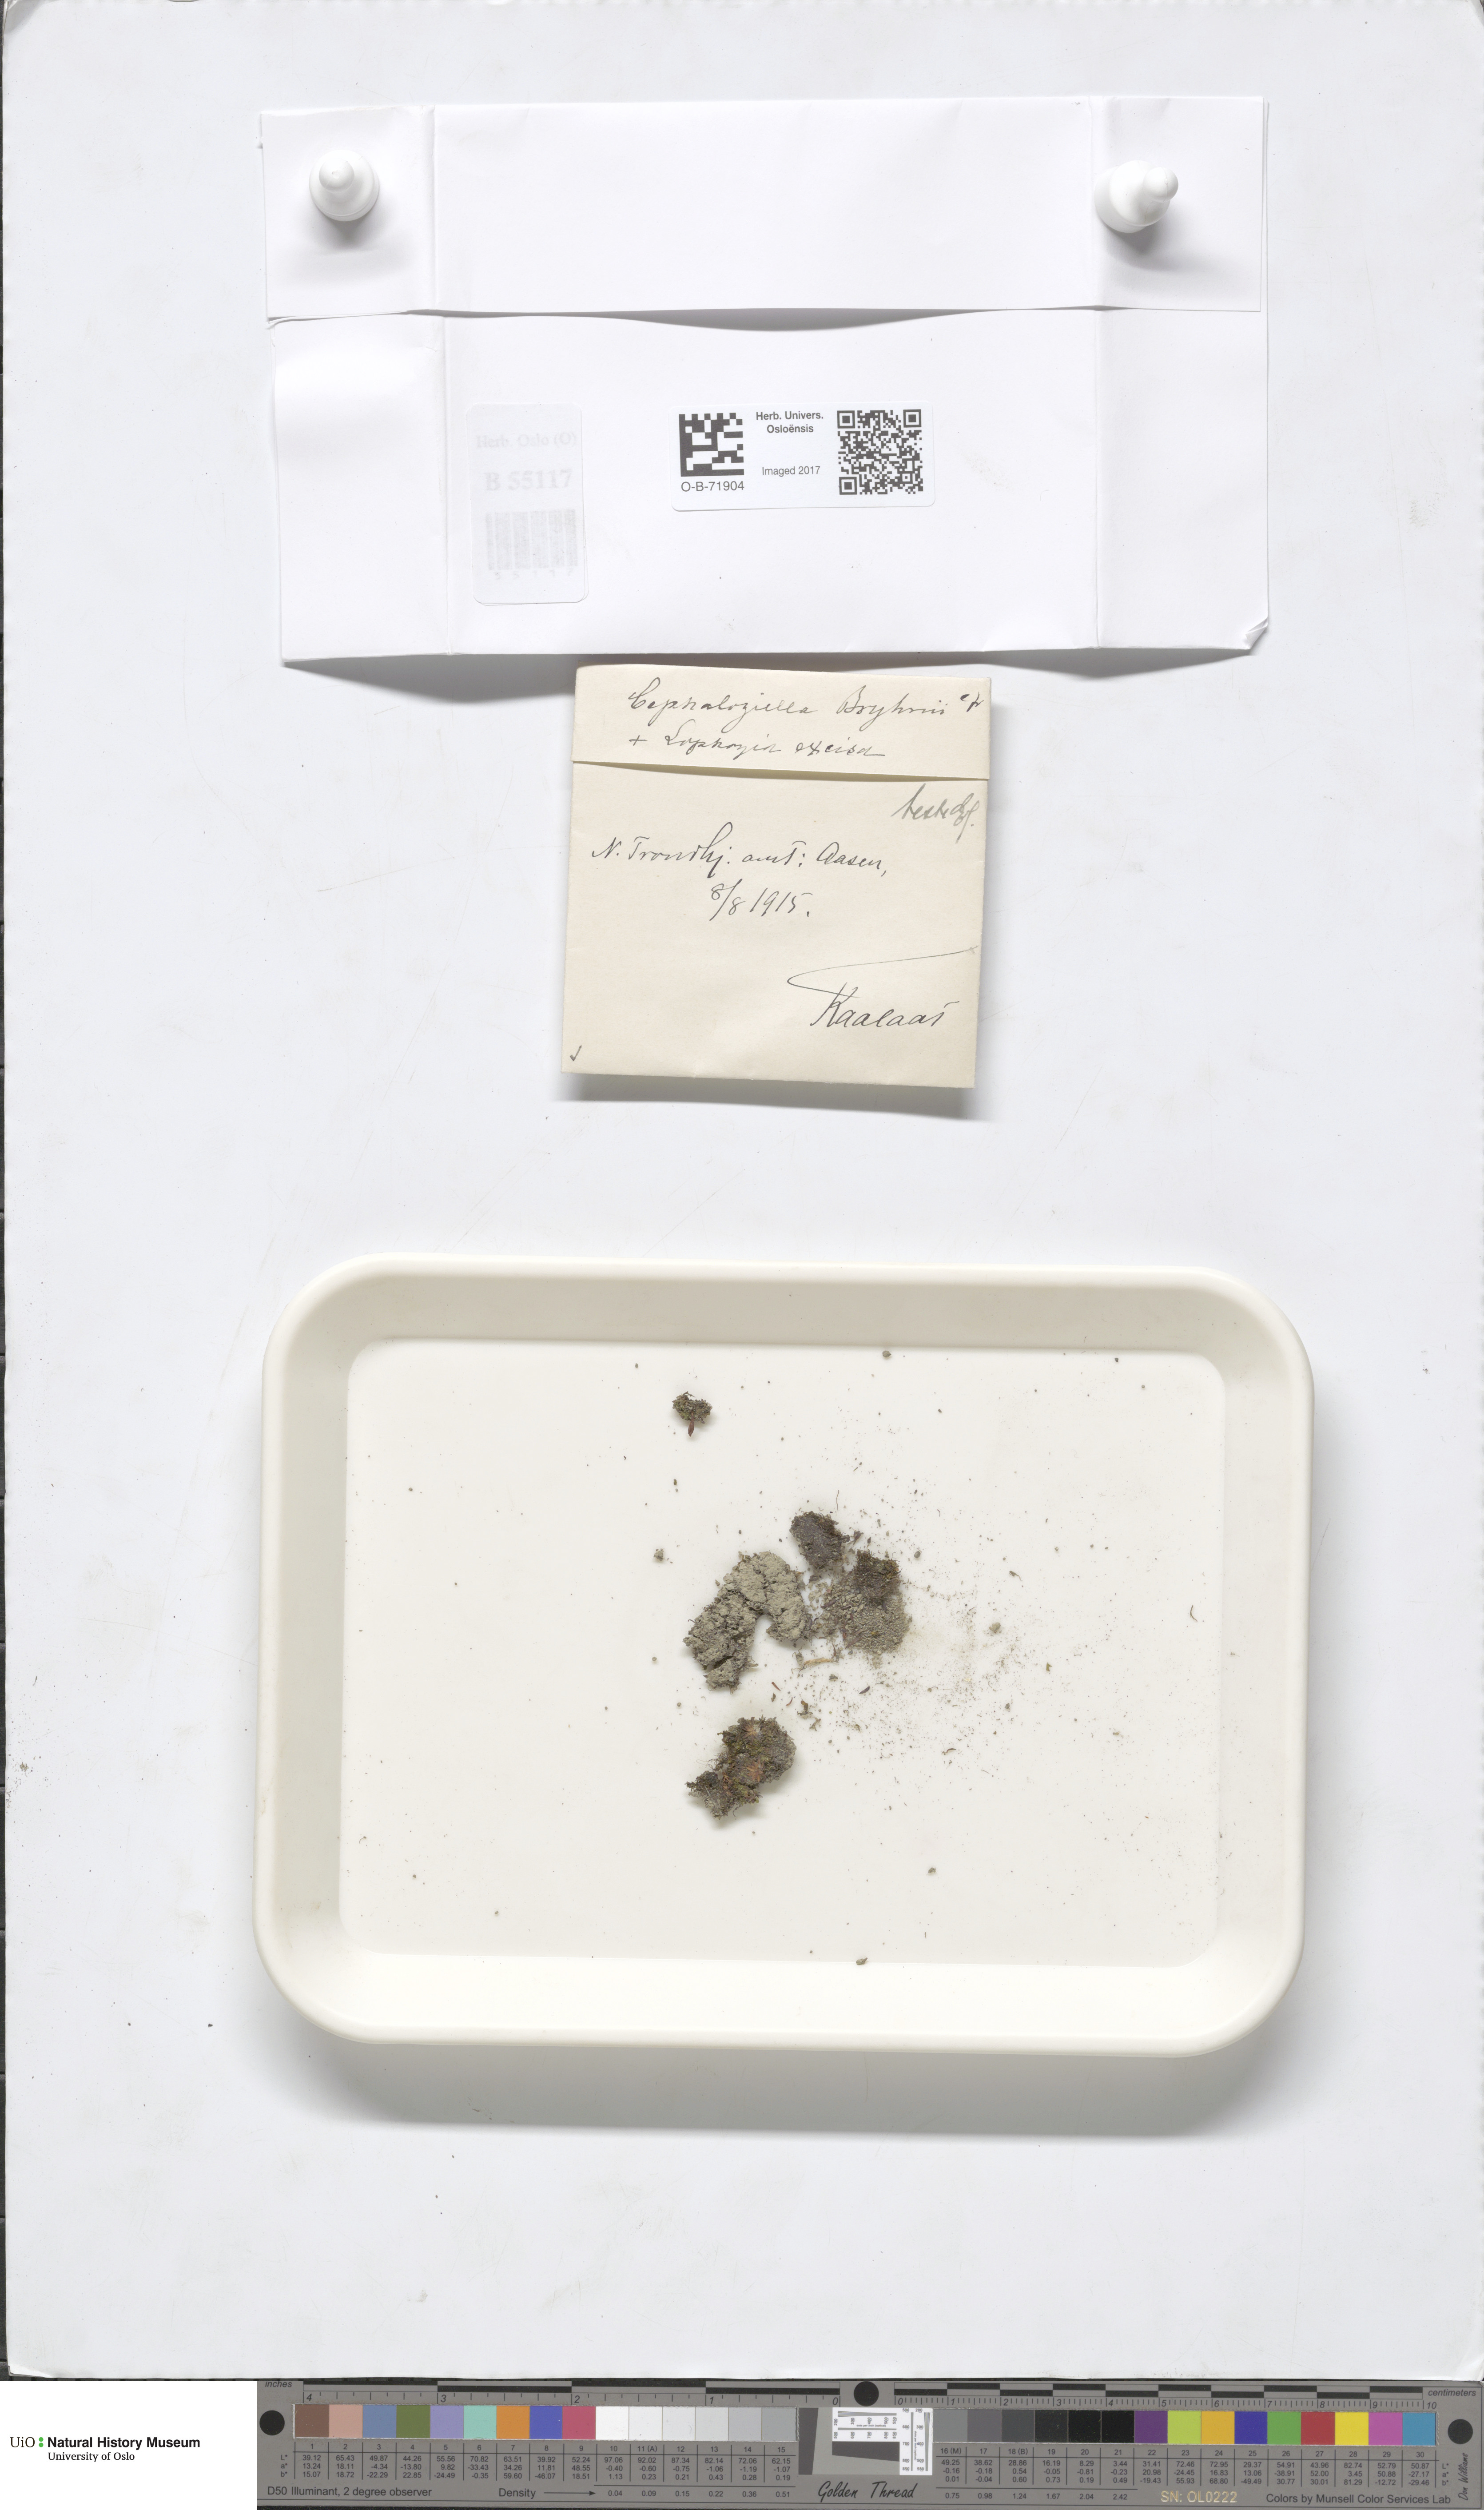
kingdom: Plantae
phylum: Marchantiophyta
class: Jungermanniopsida
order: Jungermanniales
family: Cephaloziellaceae
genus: Cephaloziella
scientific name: Cephaloziella rubella
